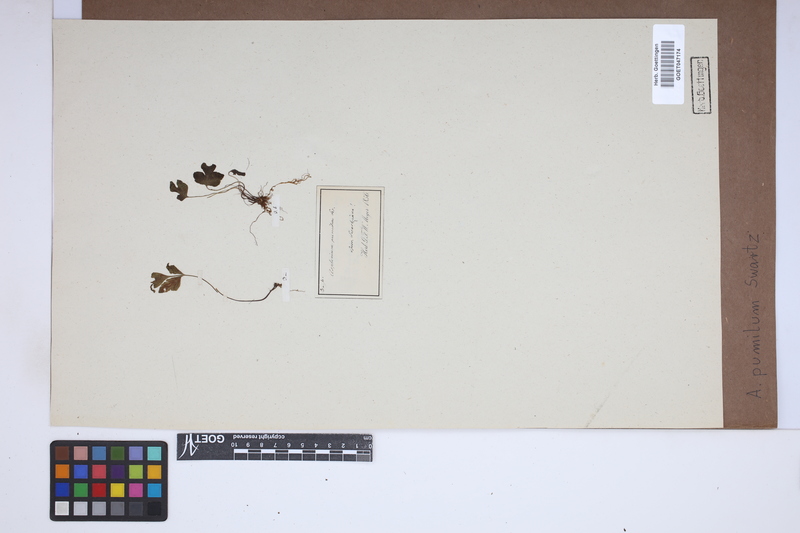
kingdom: Plantae
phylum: Tracheophyta
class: Polypodiopsida
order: Polypodiales
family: Aspleniaceae
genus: Asplenium
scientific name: Asplenium pumilum
